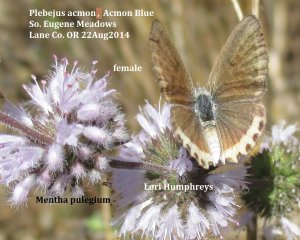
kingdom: Animalia
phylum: Arthropoda
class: Insecta
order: Lepidoptera
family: Lycaenidae
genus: Plebejus
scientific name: Plebejus acmon
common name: Acmon Blue
